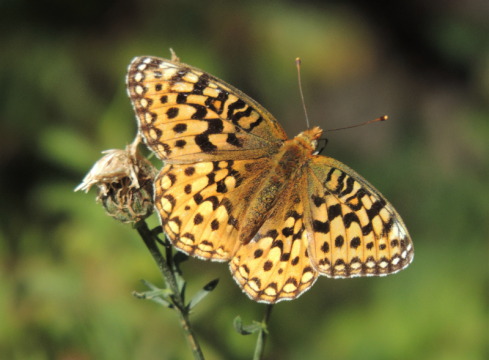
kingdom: Animalia
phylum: Arthropoda
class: Insecta
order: Lepidoptera
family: Nymphalidae
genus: Speyeria
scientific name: Speyeria zerene
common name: Zerene Fritillary
